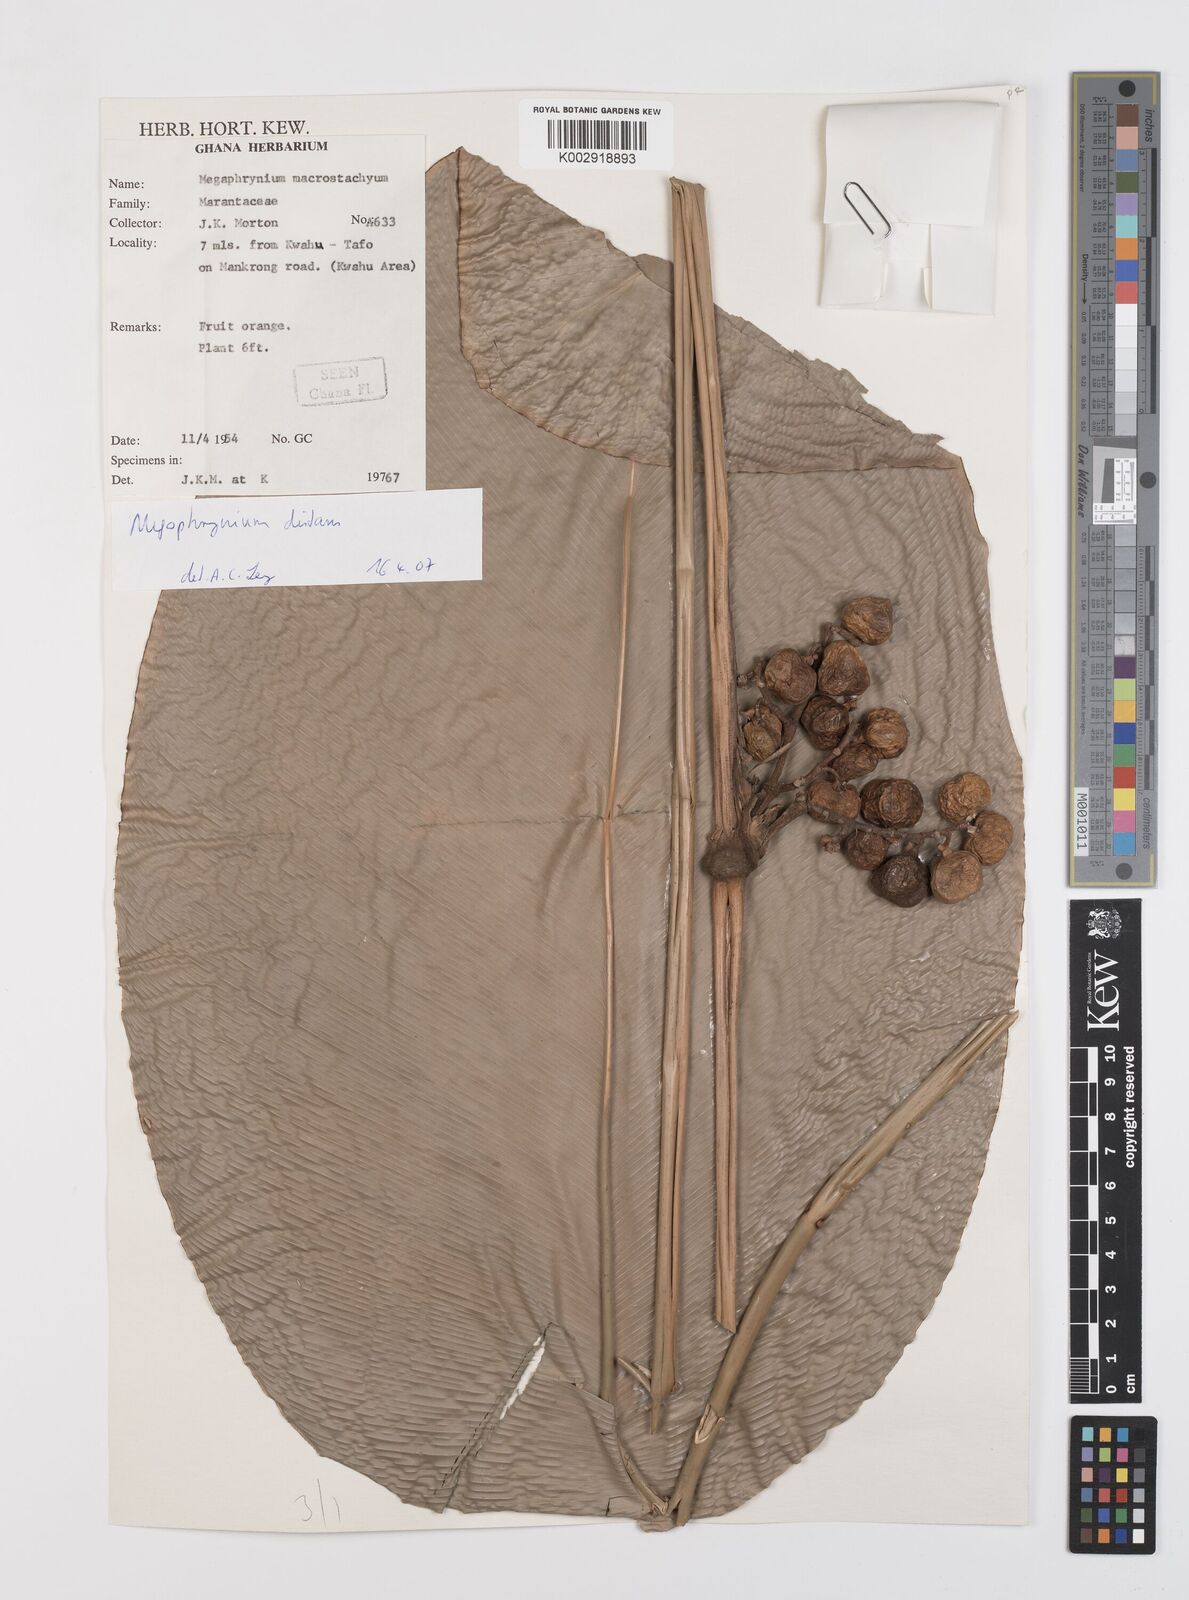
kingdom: Plantae
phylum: Tracheophyta
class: Liliopsida
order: Zingiberales
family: Marantaceae
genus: Megaphrynium
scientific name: Megaphrynium distans
